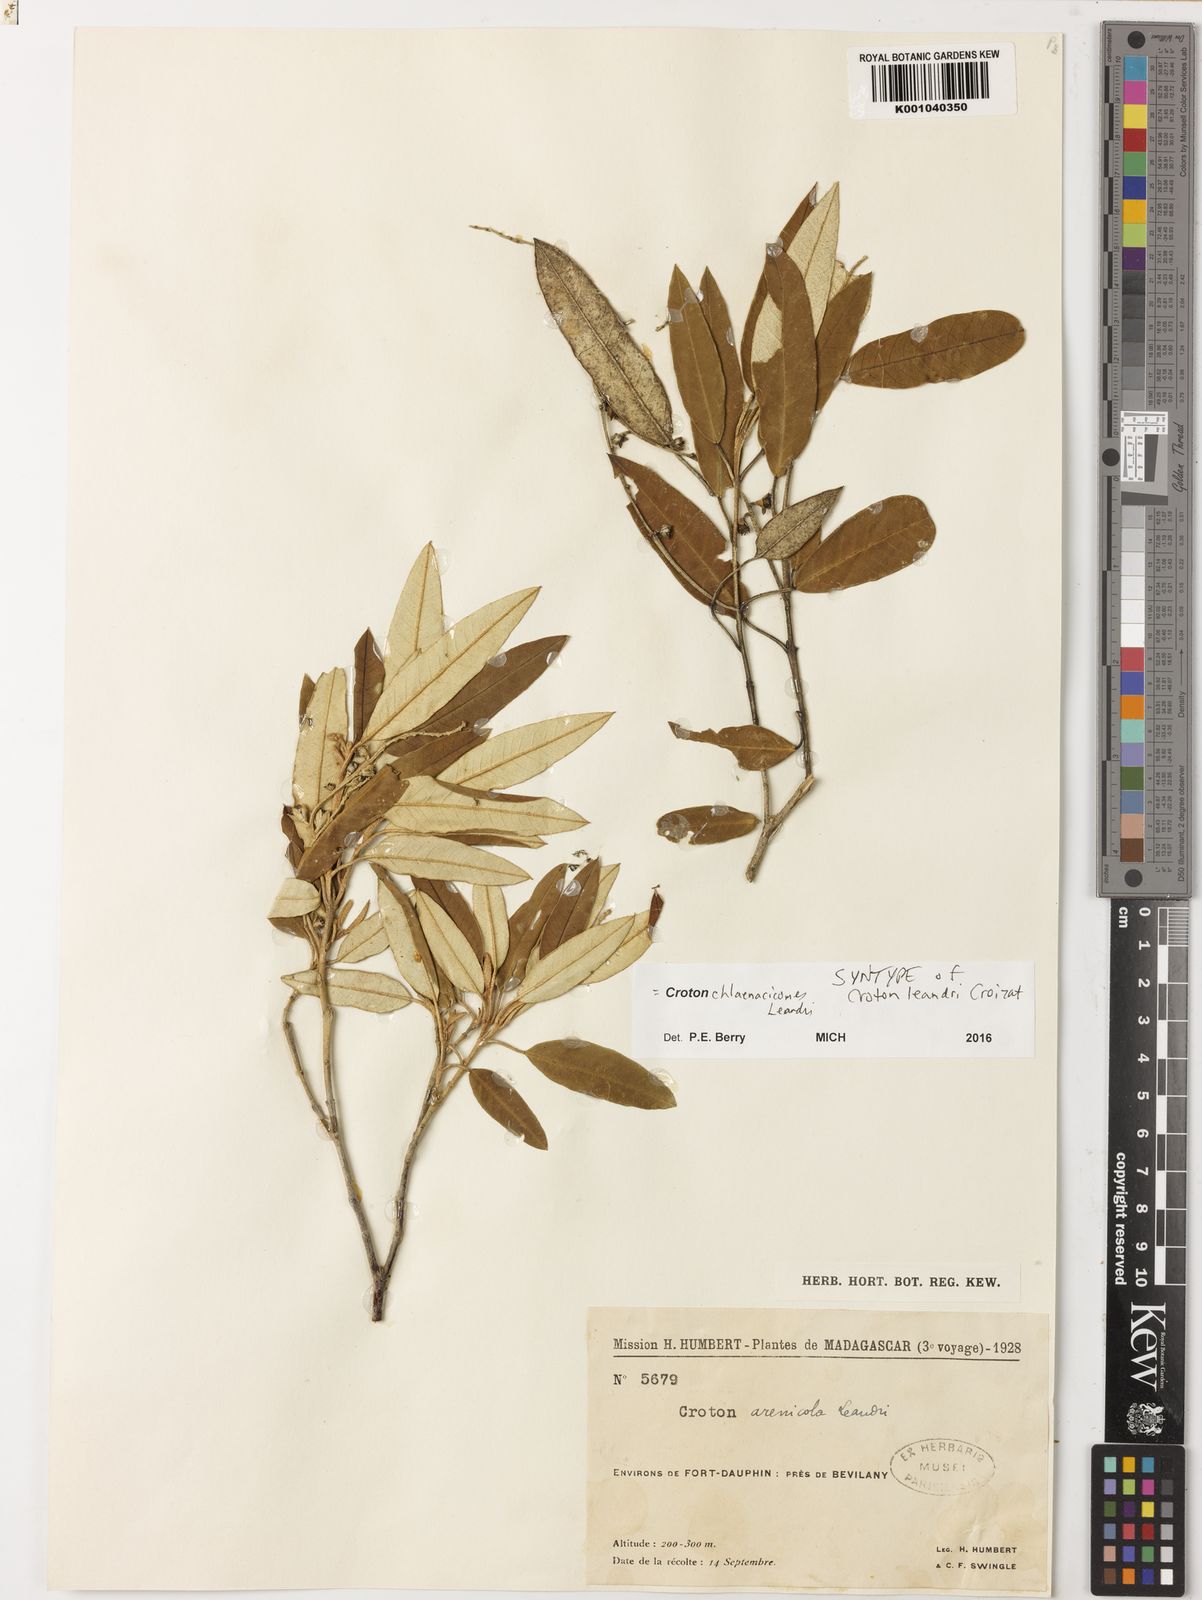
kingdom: Plantae
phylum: Tracheophyta
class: Magnoliopsida
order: Malpighiales
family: Euphorbiaceae
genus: Croton
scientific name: Croton chlaenacicomes
